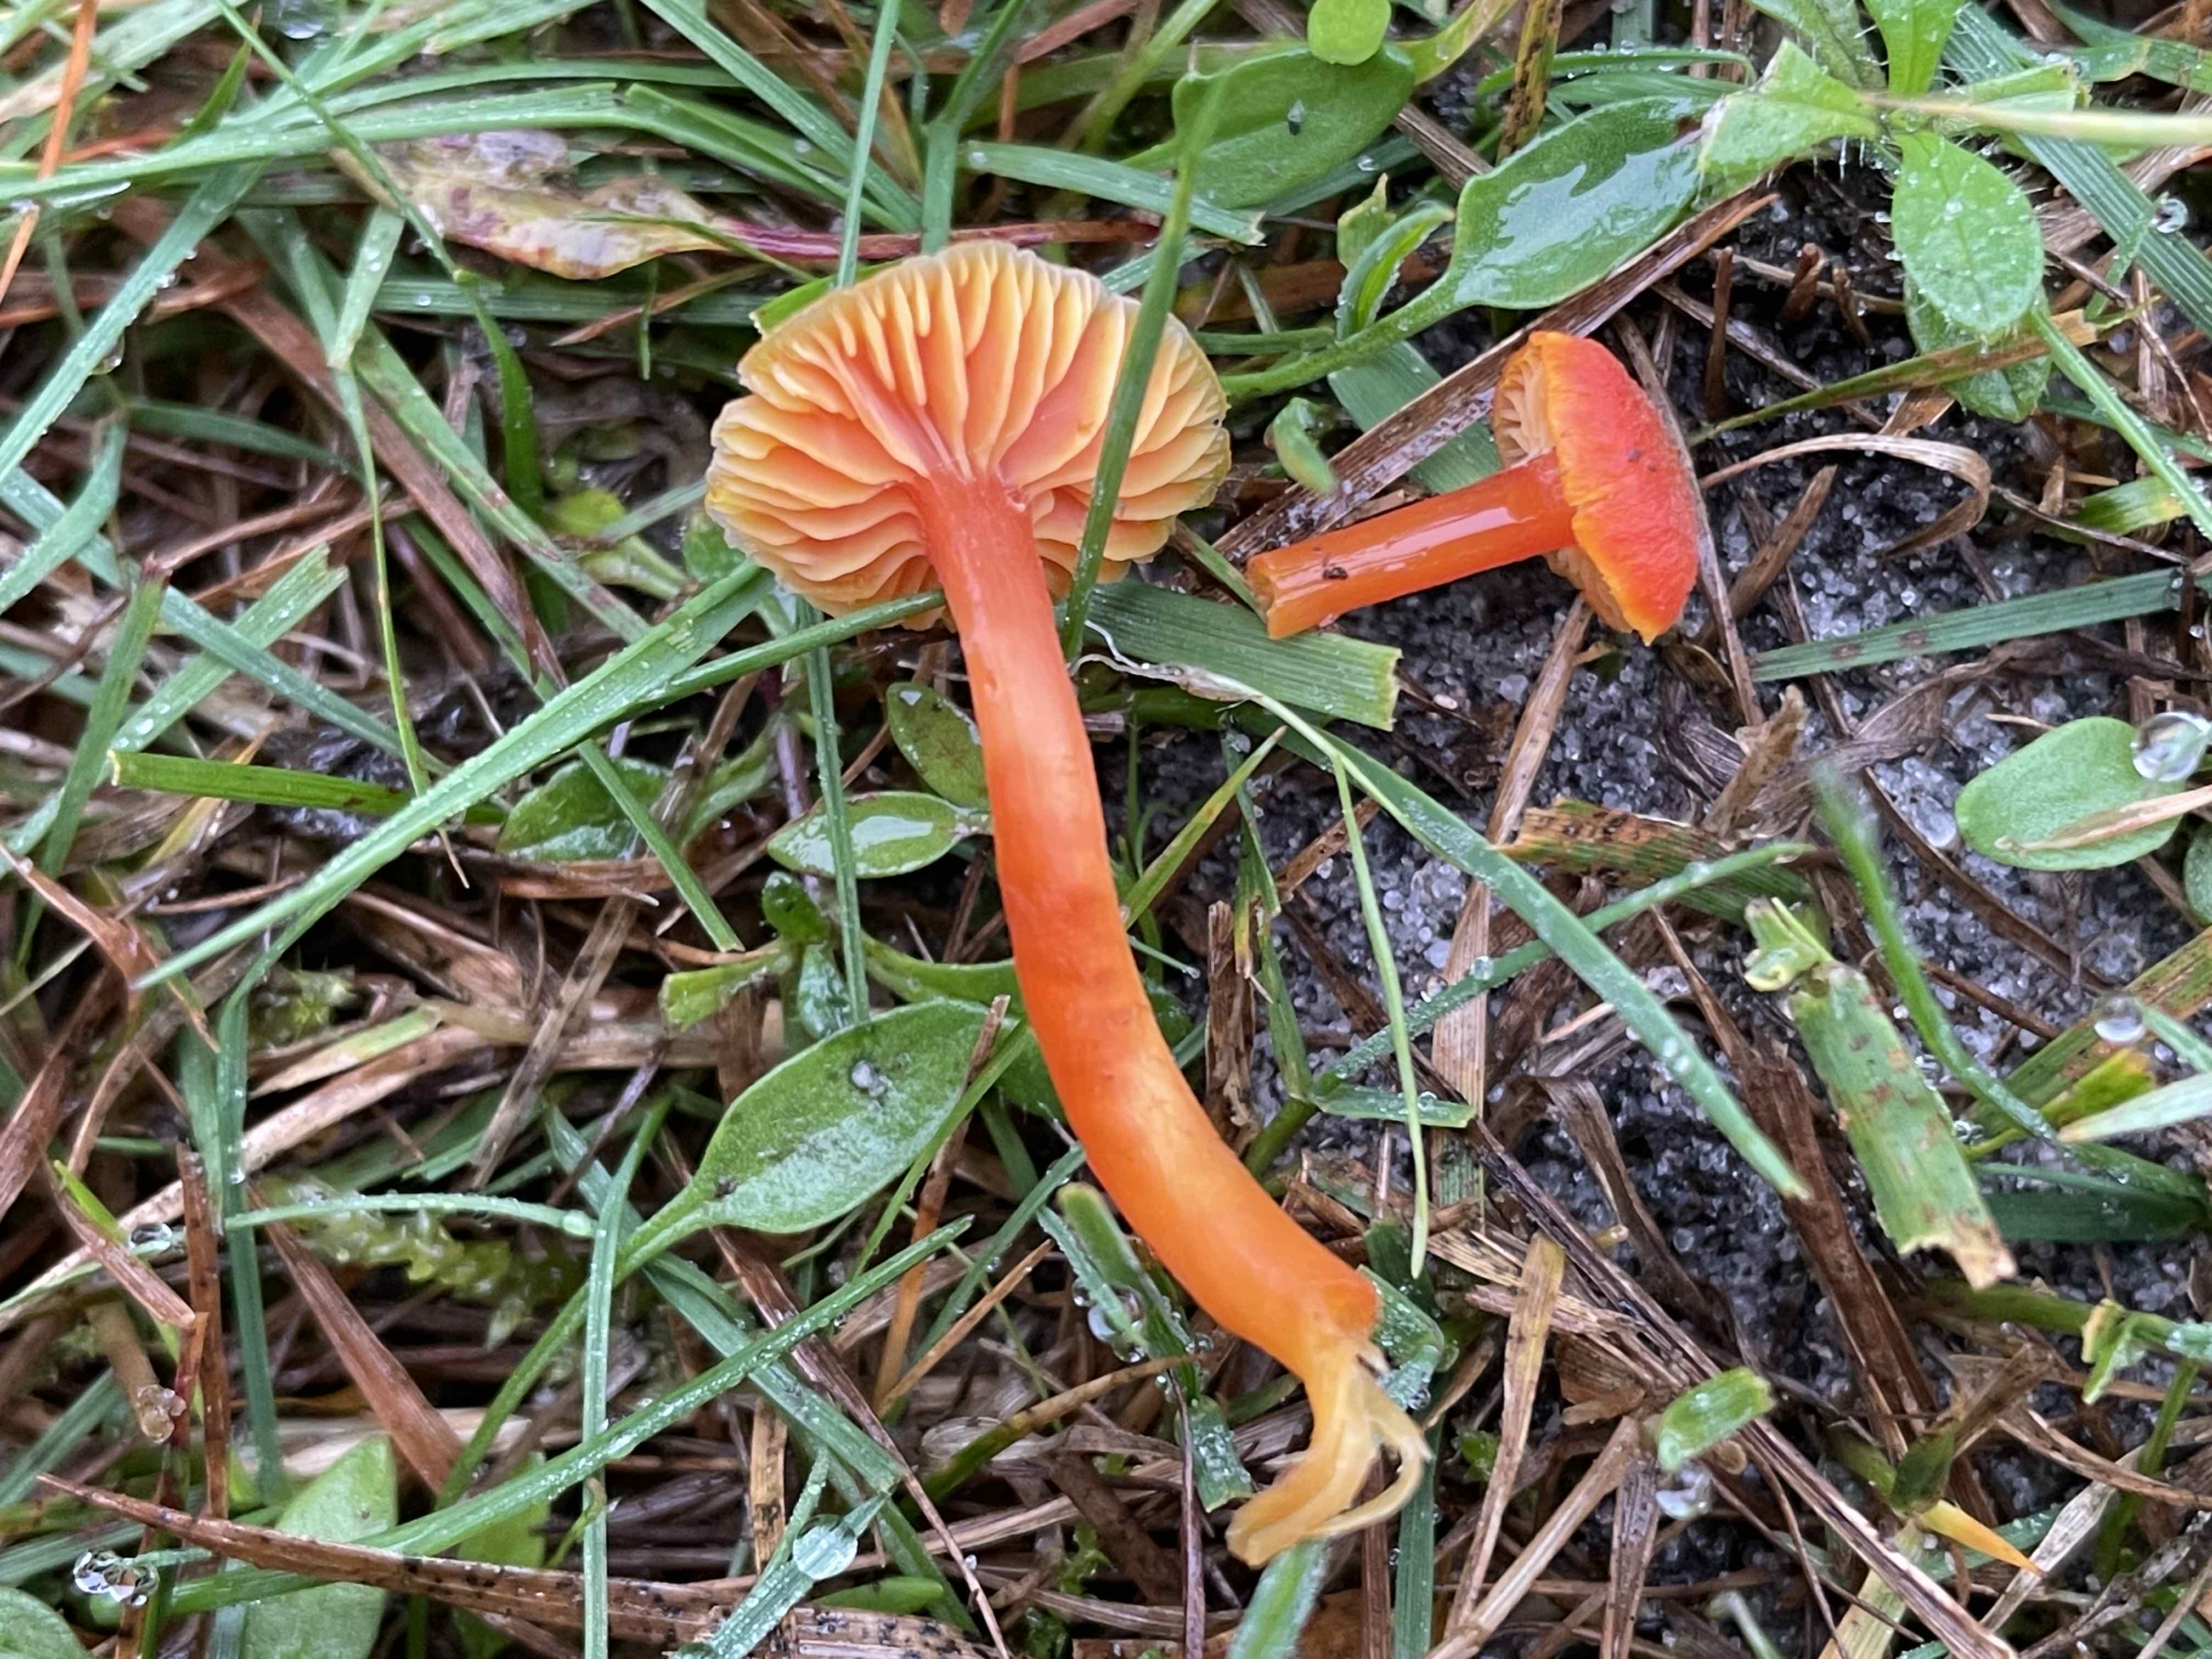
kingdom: Fungi
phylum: Basidiomycota
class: Agaricomycetes
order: Agaricales
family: Hygrophoraceae
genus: Hygrocybe
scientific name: Hygrocybe miniata
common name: mønje-vokshat
